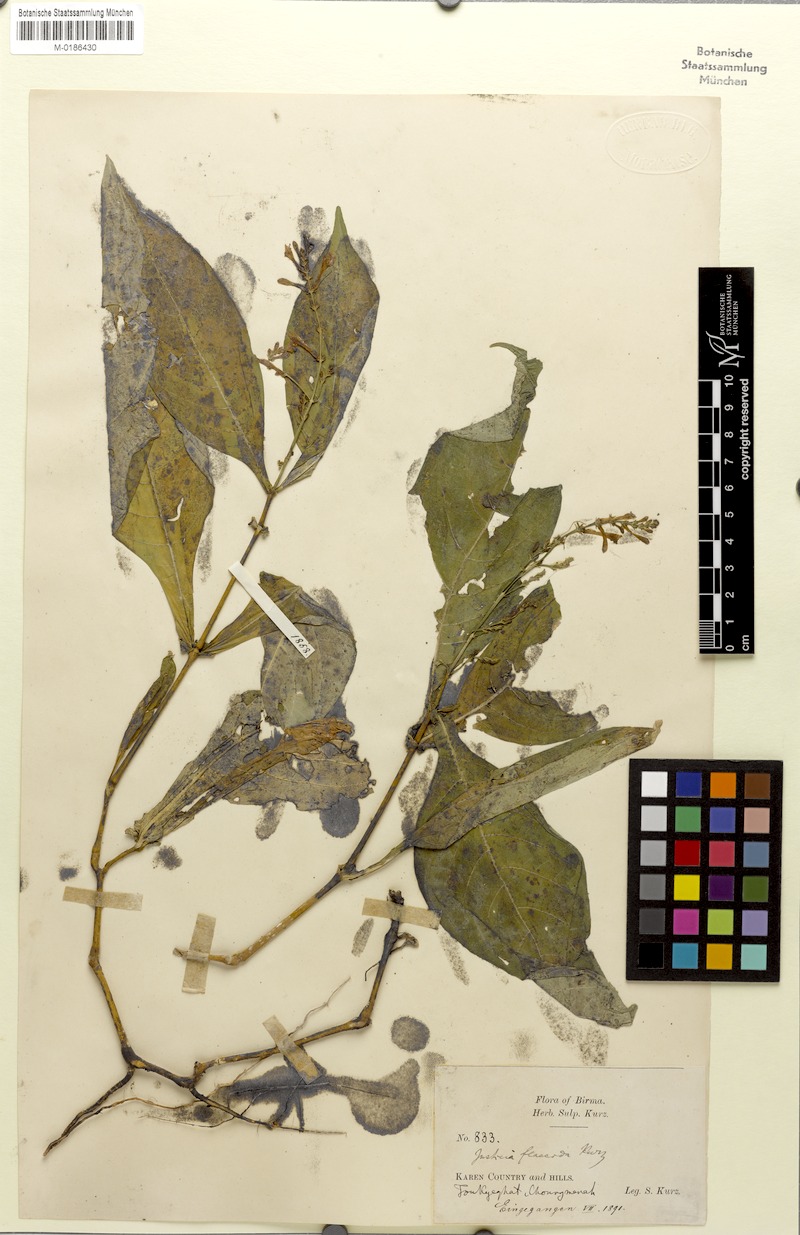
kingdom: Plantae
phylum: Tracheophyta
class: Magnoliopsida
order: Lamiales
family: Acanthaceae
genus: Justicia
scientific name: Justicia flaccida
